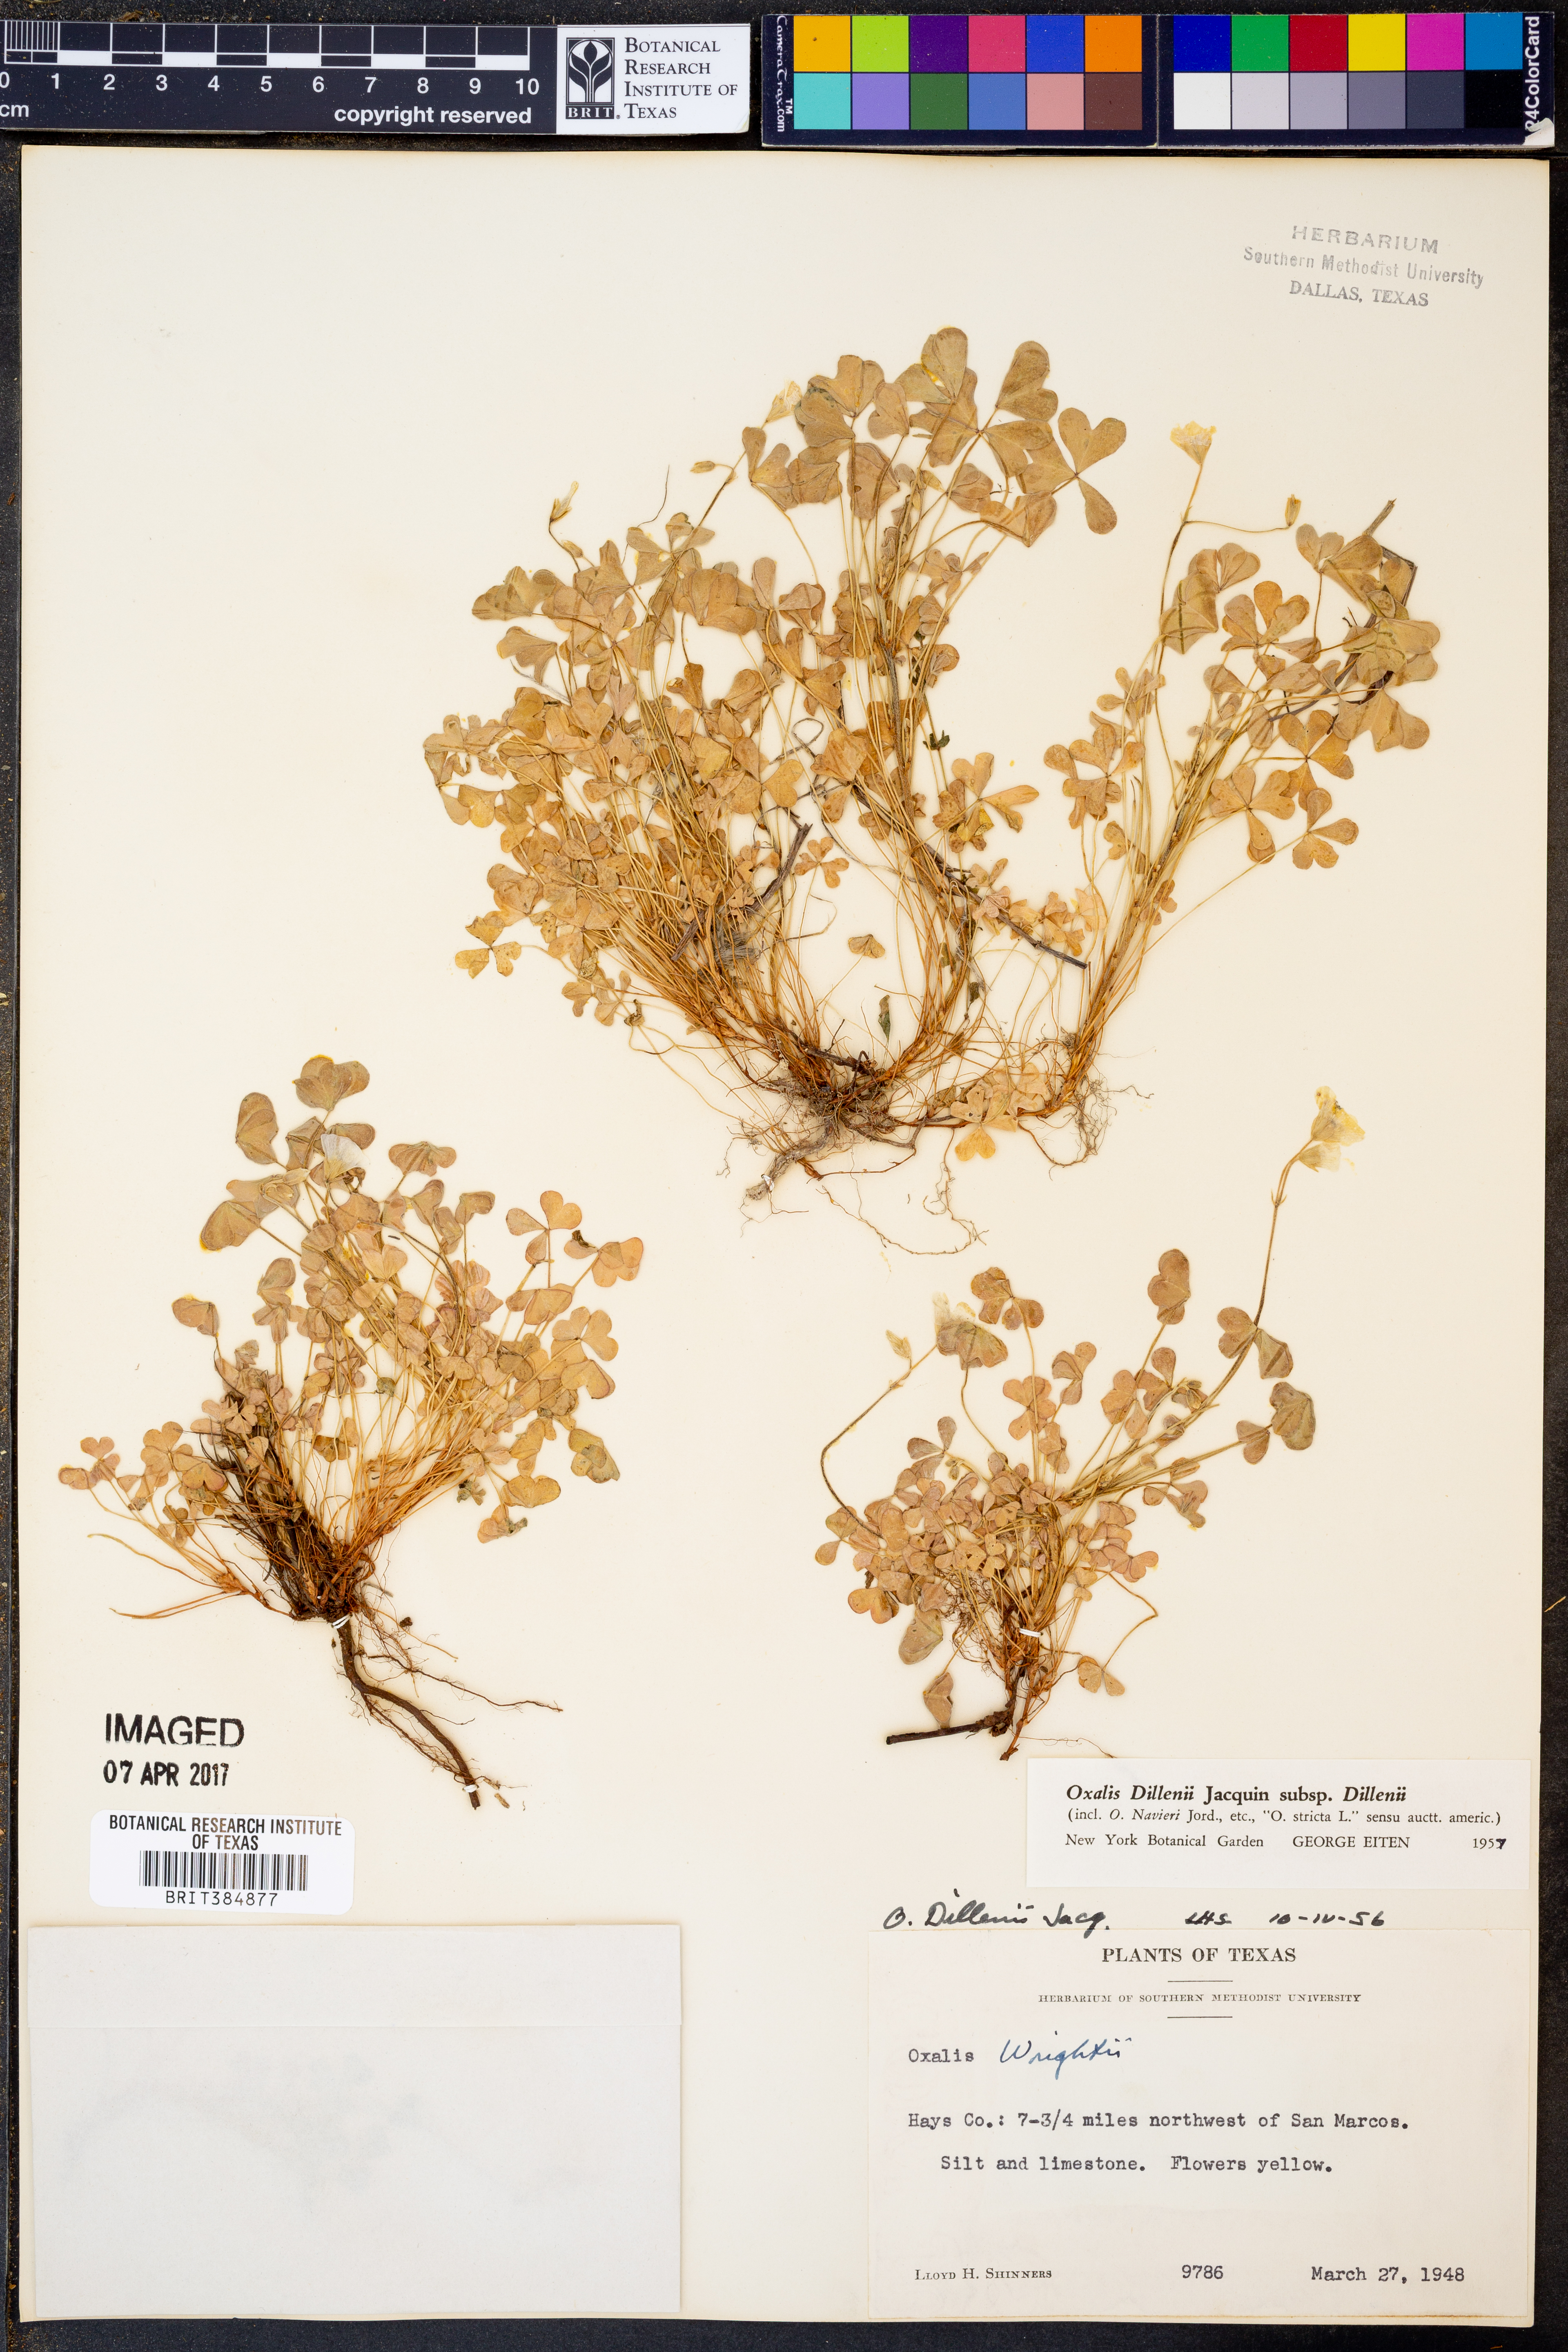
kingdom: Plantae
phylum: Tracheophyta
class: Magnoliopsida
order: Oxalidales
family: Oxalidaceae
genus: Oxalis
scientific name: Oxalis dillenii
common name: Sussex yellow-sorrel
